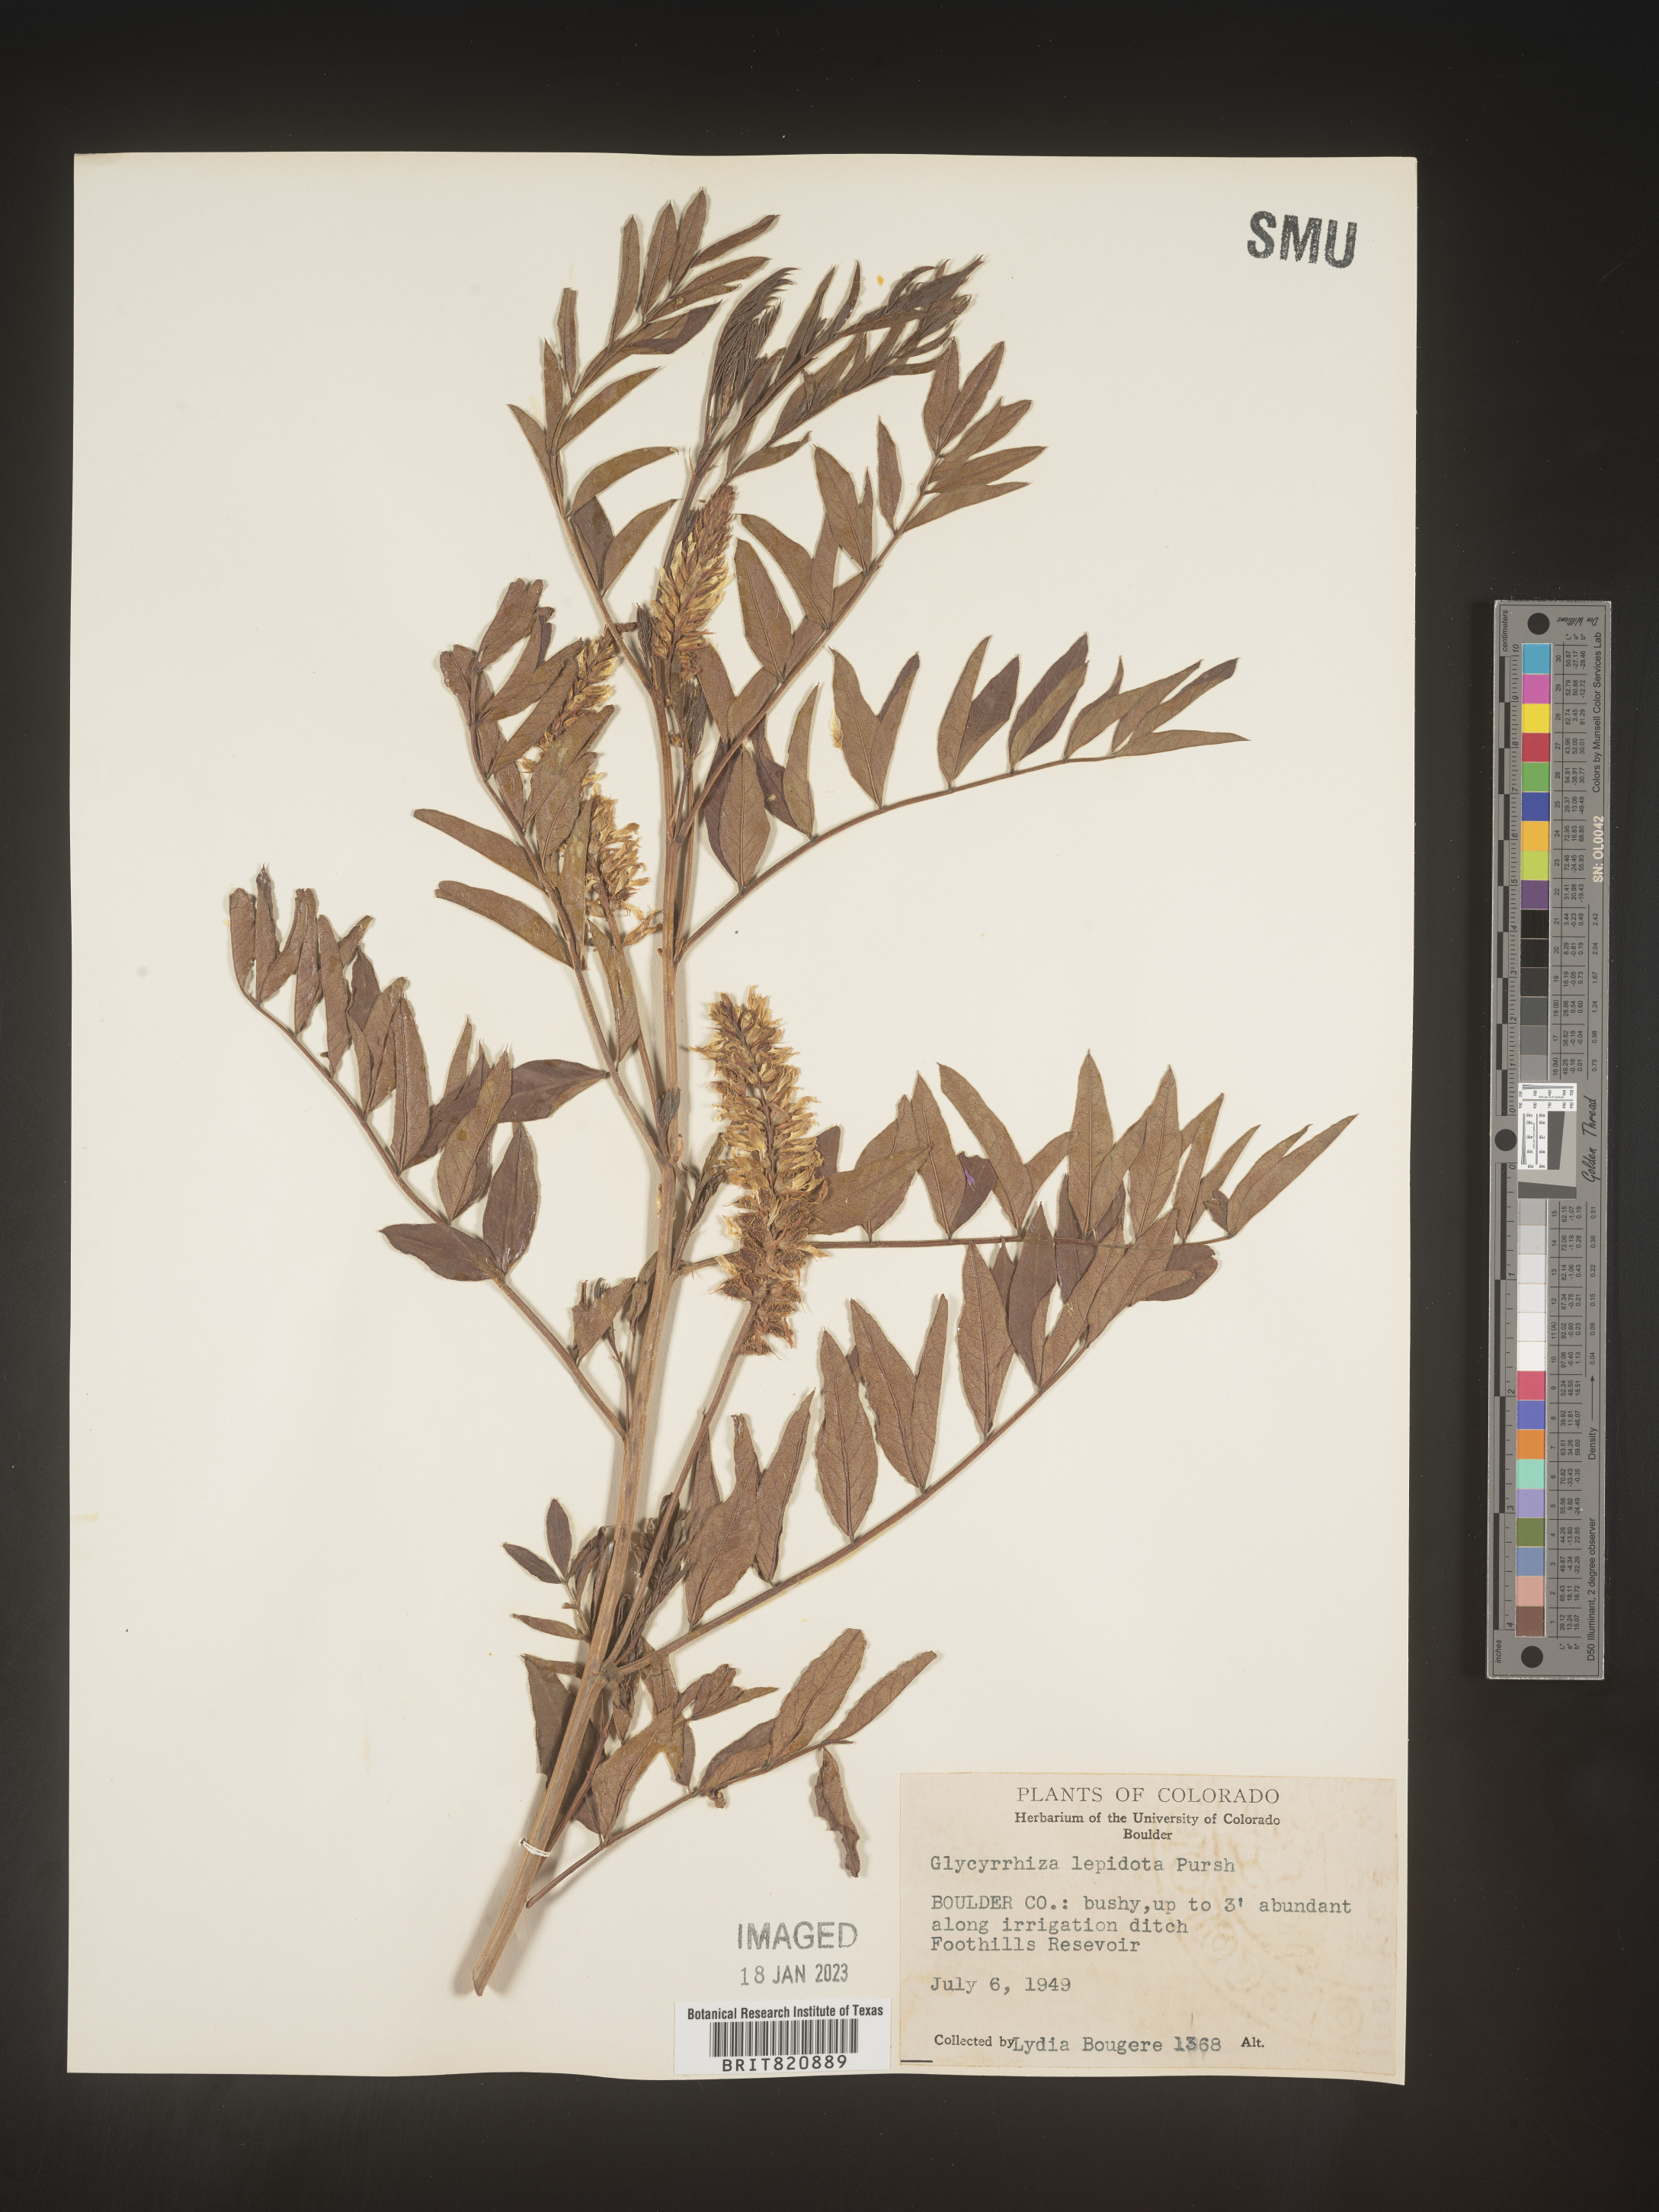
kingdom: Plantae
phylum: Tracheophyta
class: Magnoliopsida
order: Fabales
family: Fabaceae
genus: Glycyrrhiza
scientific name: Glycyrrhiza lepidota
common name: American liquorice
